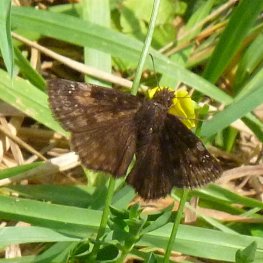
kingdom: Animalia
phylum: Arthropoda
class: Insecta
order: Lepidoptera
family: Hesperiidae
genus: Gesta
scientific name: Gesta
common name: Wild Indigo Duskywing
